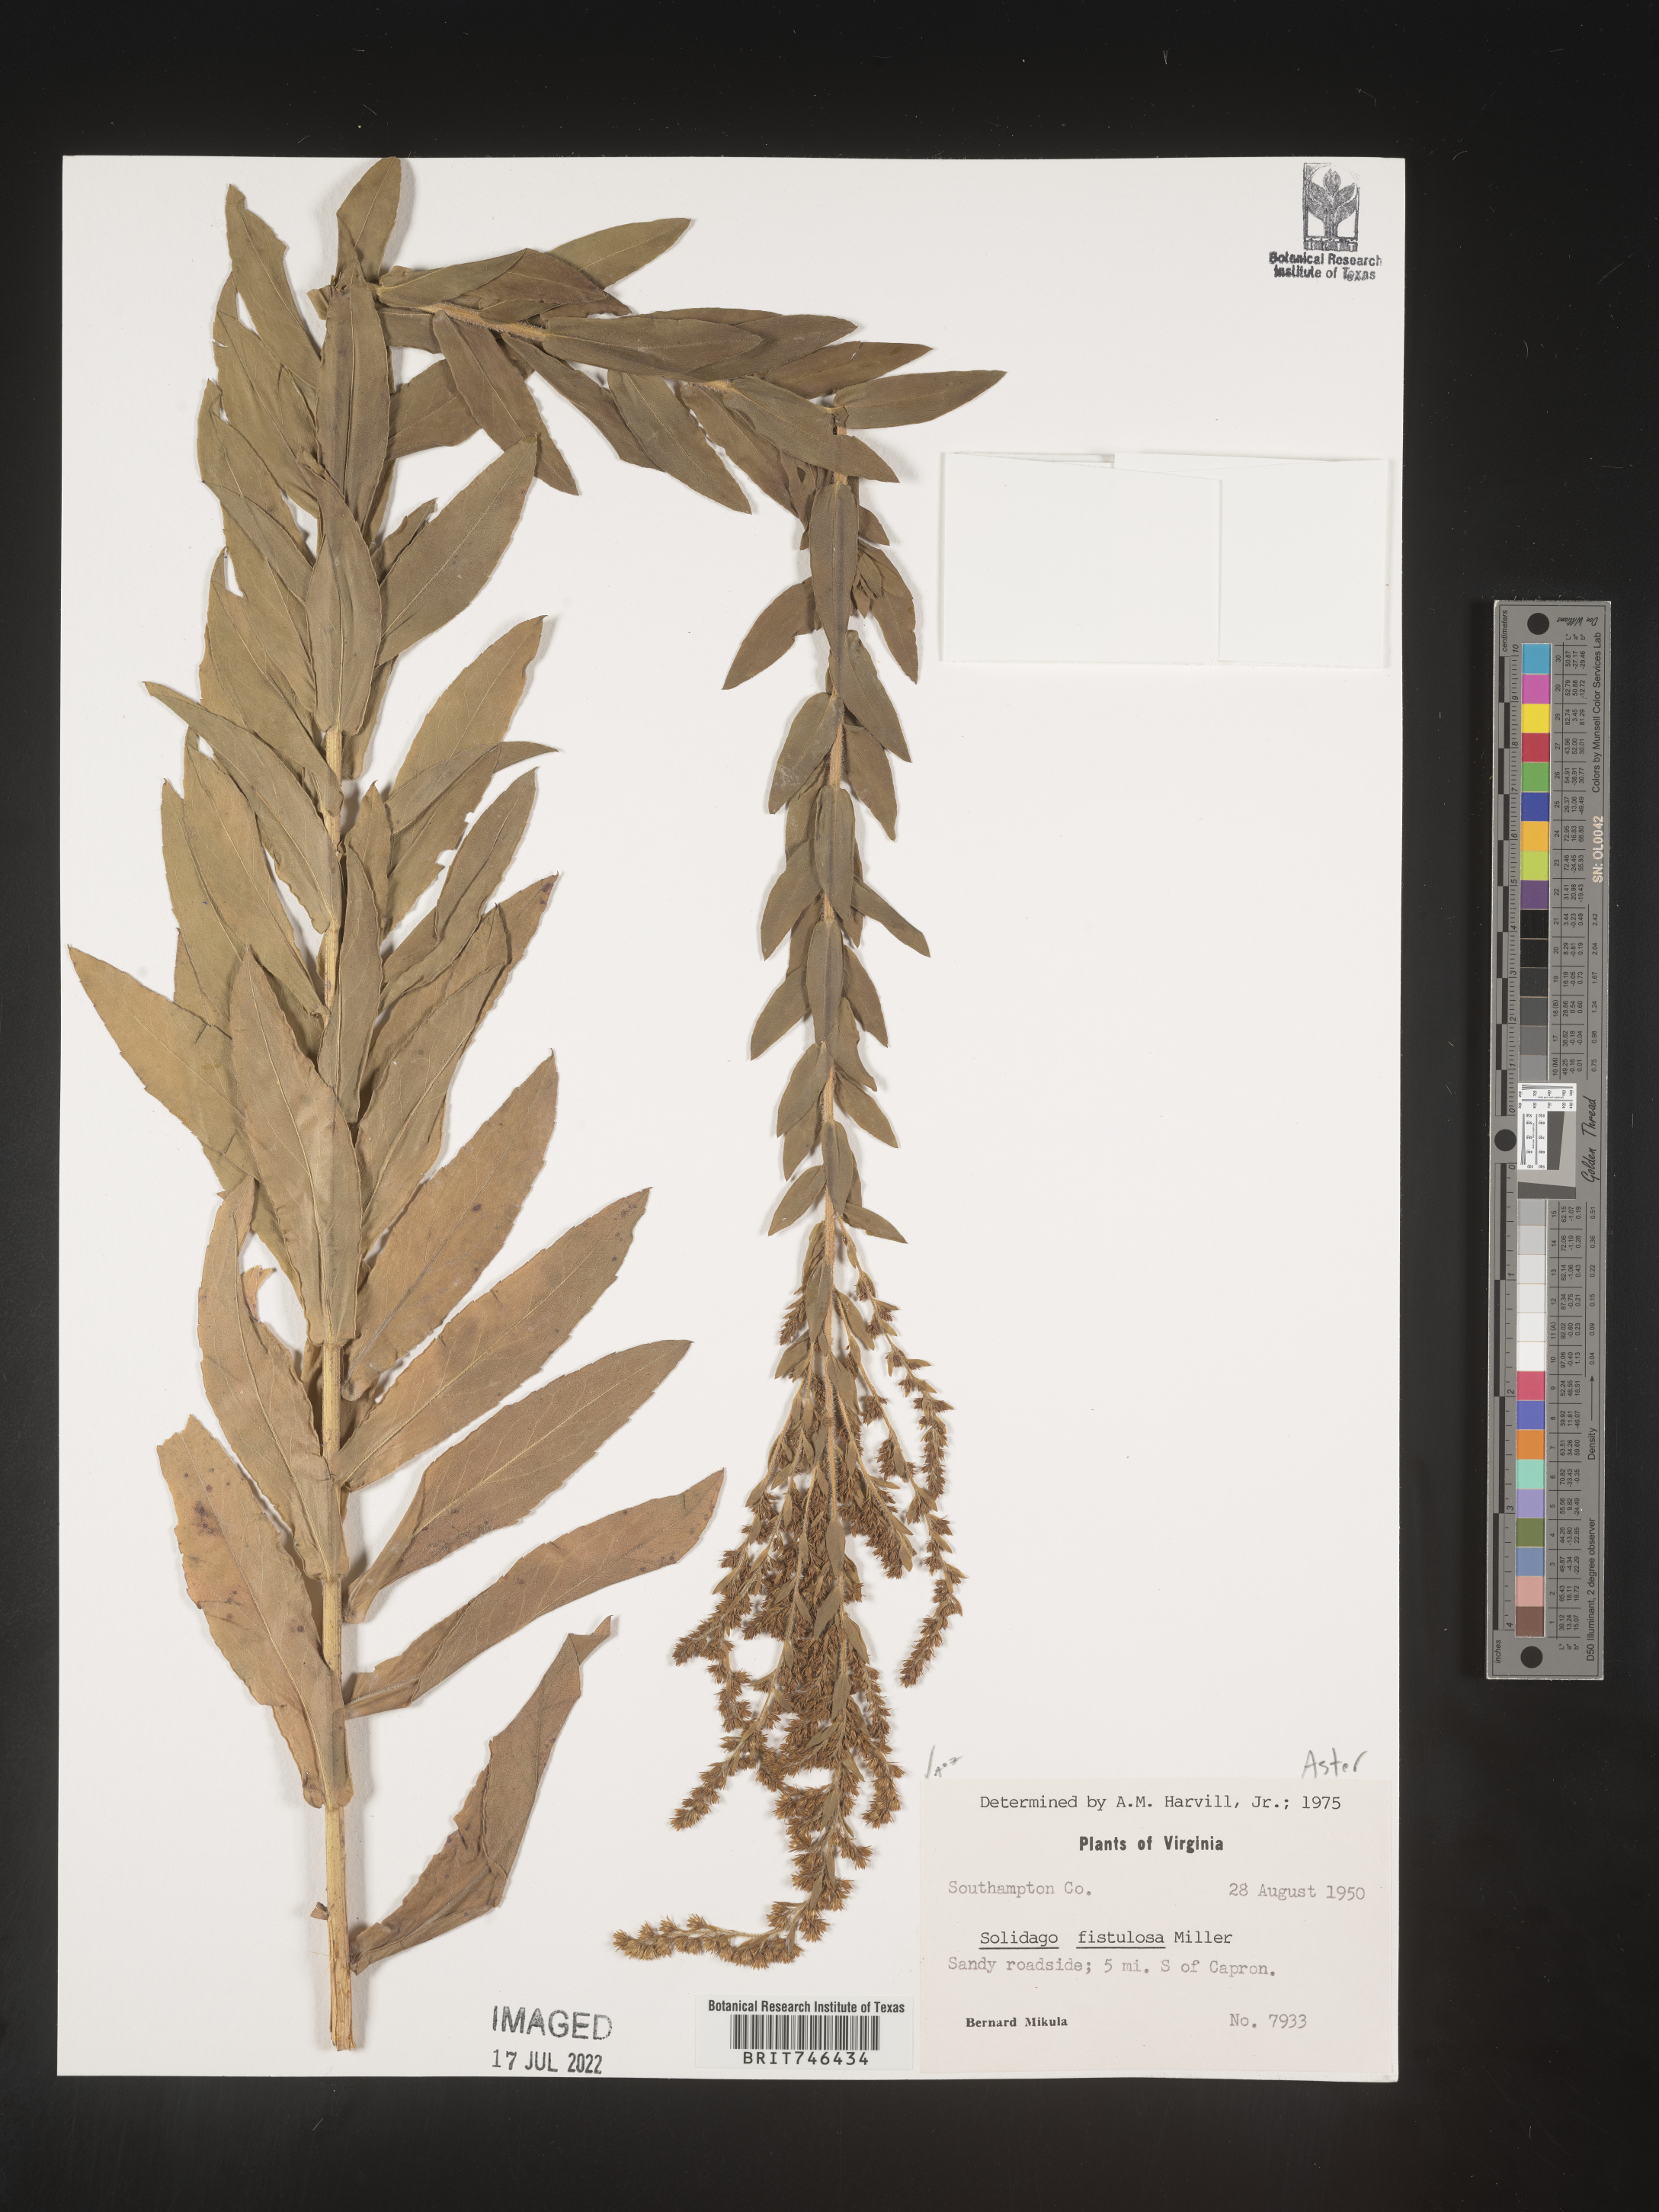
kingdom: Plantae
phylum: Tracheophyta
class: Magnoliopsida
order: Asterales
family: Asteraceae
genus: Solidago
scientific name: Solidago fistulosa
